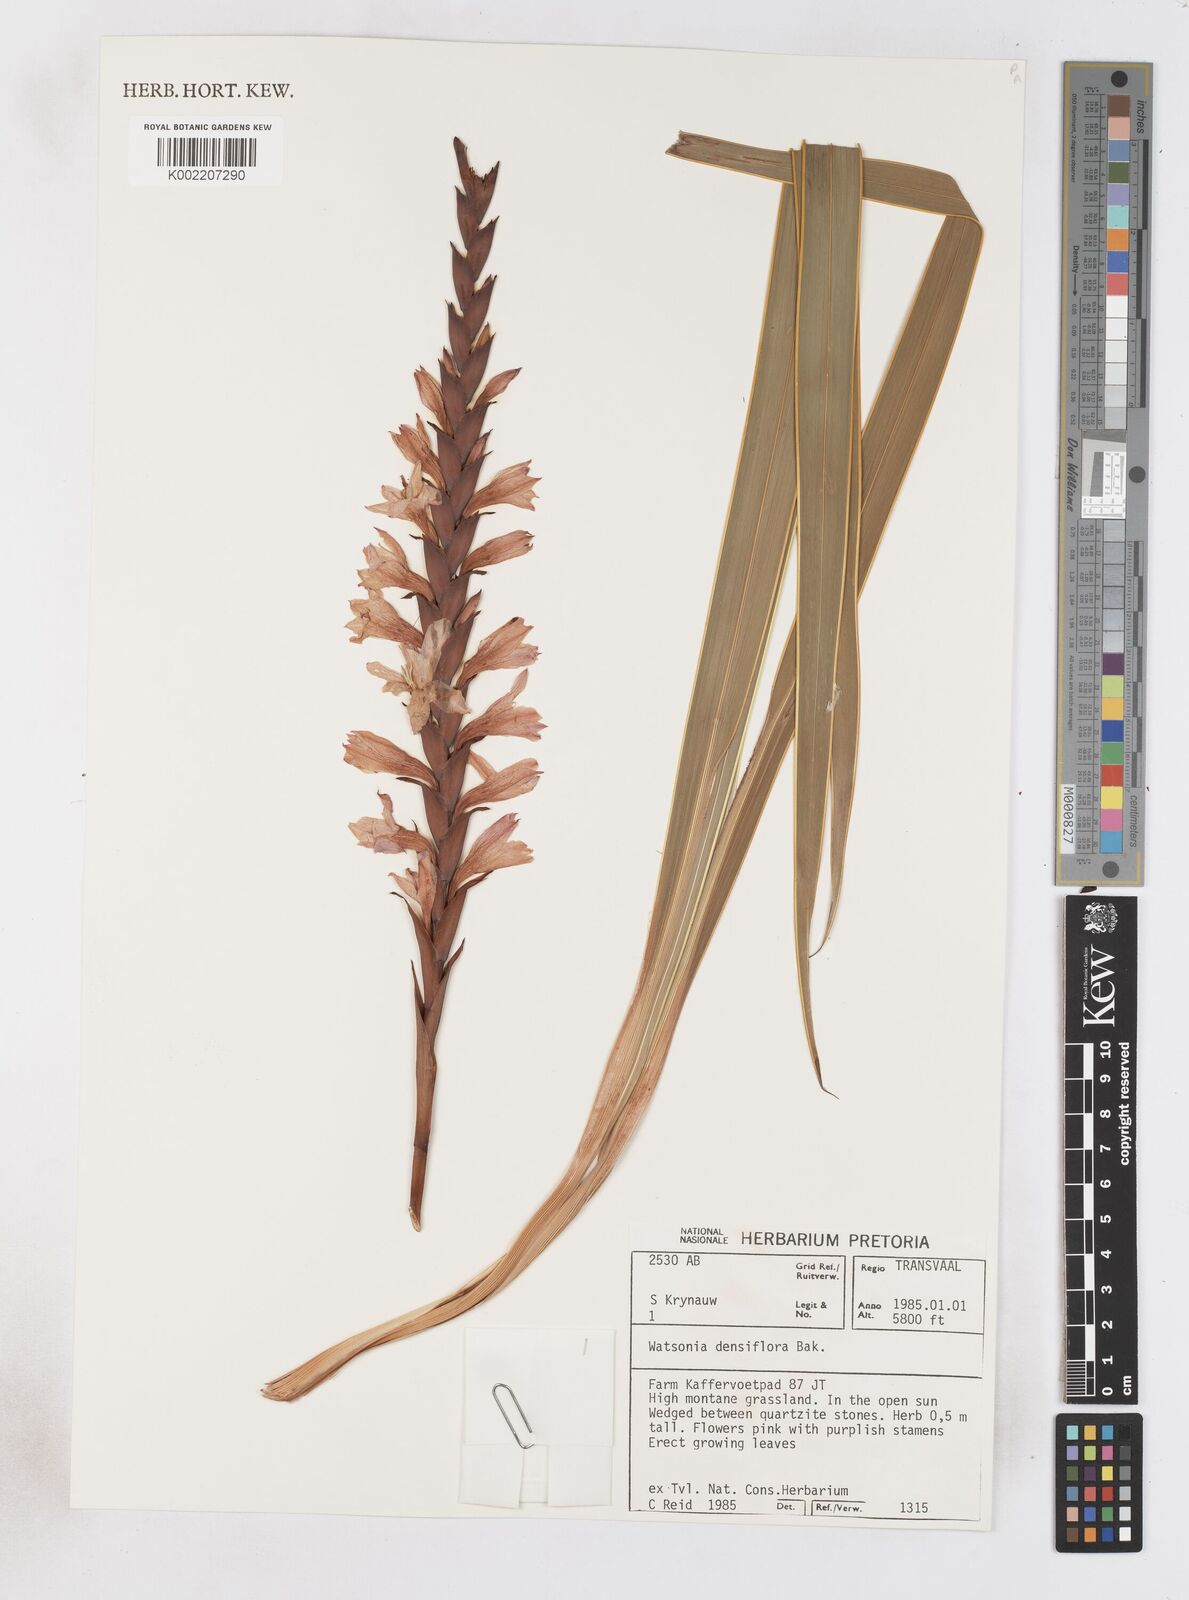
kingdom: Plantae
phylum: Tracheophyta
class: Liliopsida
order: Asparagales
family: Iridaceae
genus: Watsonia
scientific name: Watsonia densiflora
